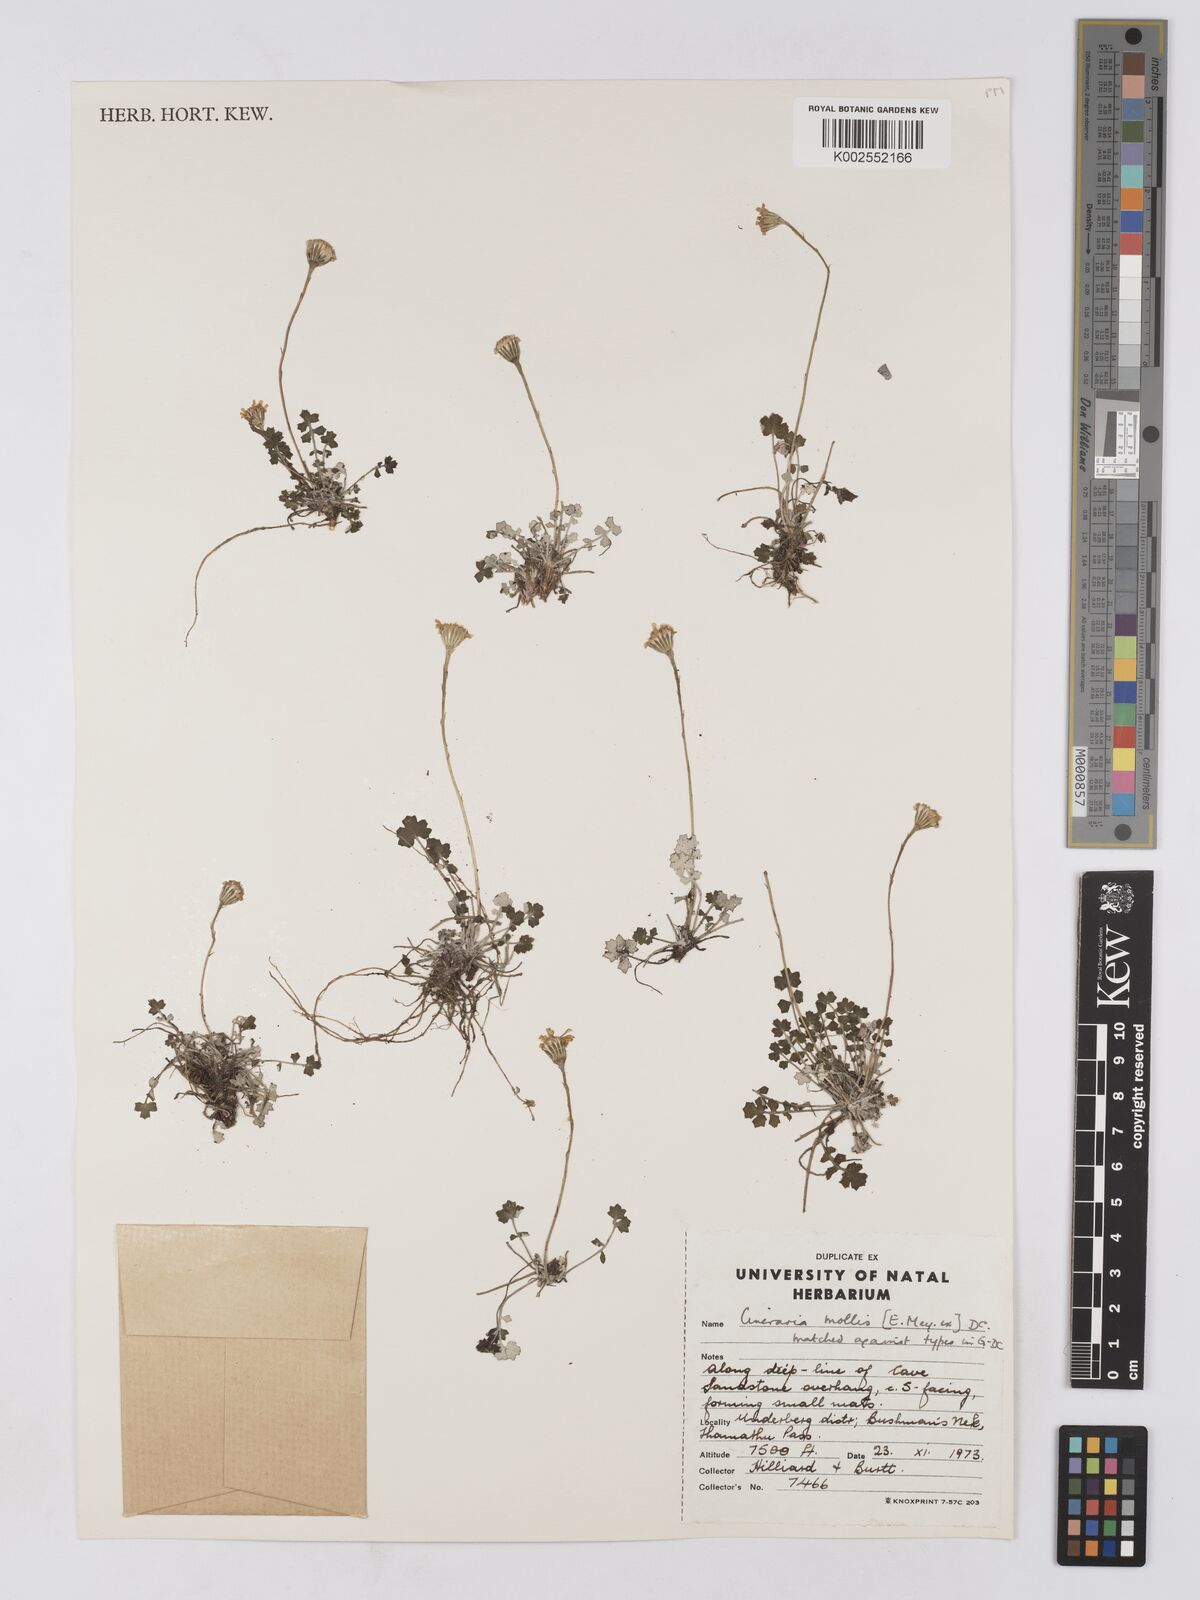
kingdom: Plantae
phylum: Tracheophyta
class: Magnoliopsida
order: Asterales
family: Asteraceae
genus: Cineraria
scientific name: Cineraria mollis
